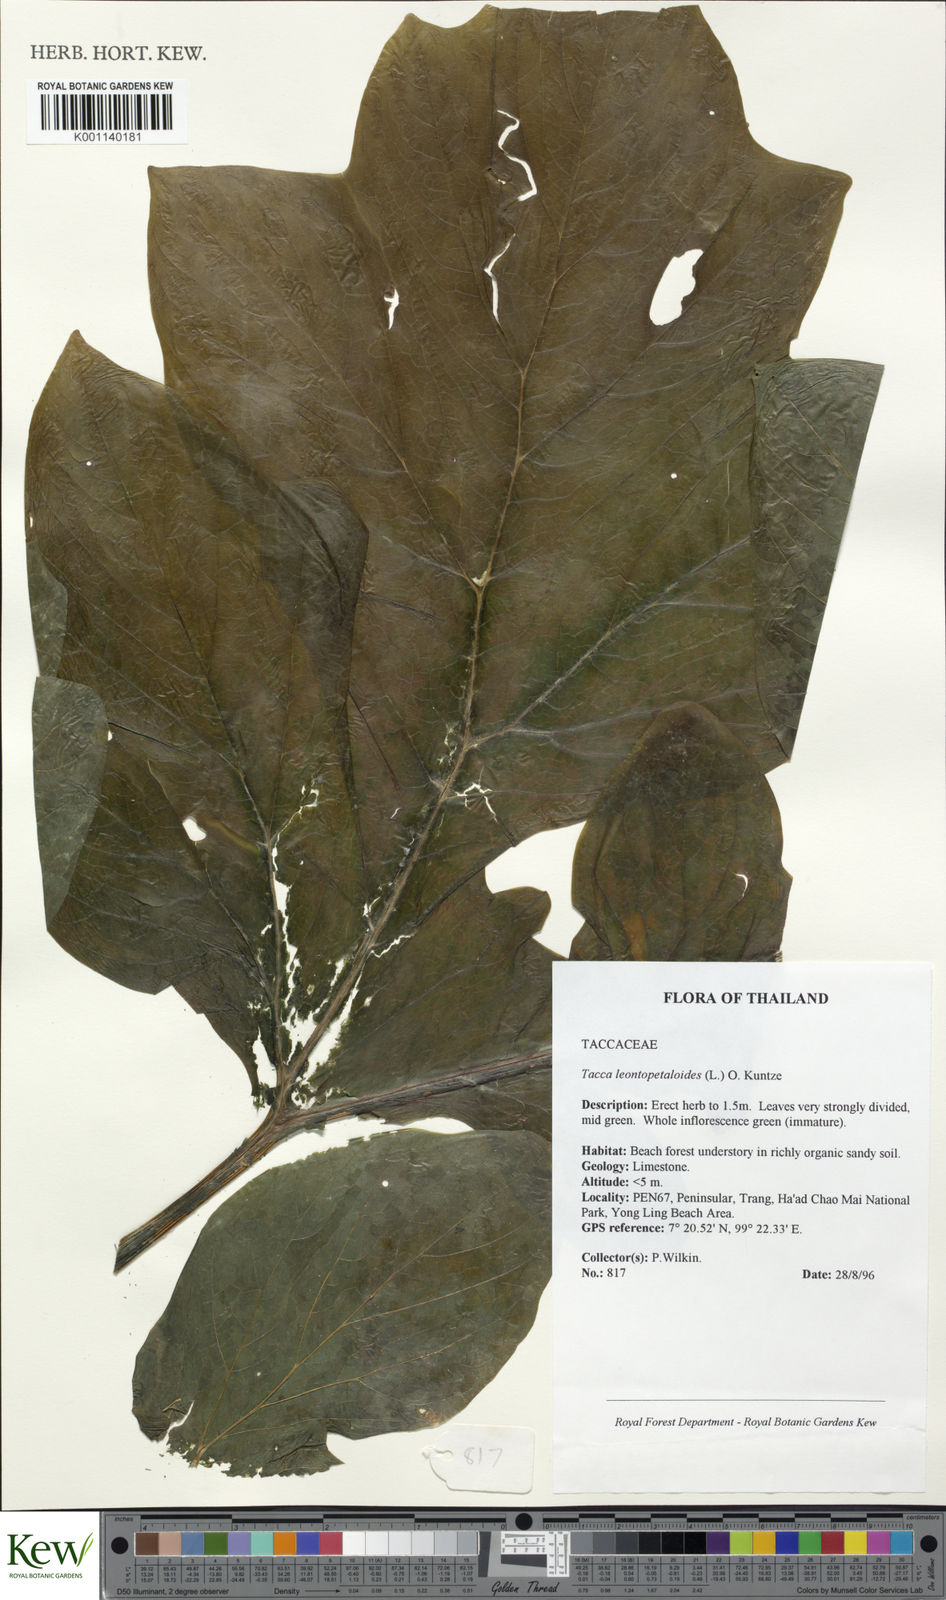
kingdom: Plantae
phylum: Tracheophyta
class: Liliopsida
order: Dioscoreales
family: Dioscoreaceae
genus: Tacca
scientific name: Tacca leontopetaloides
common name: Arrowroot
